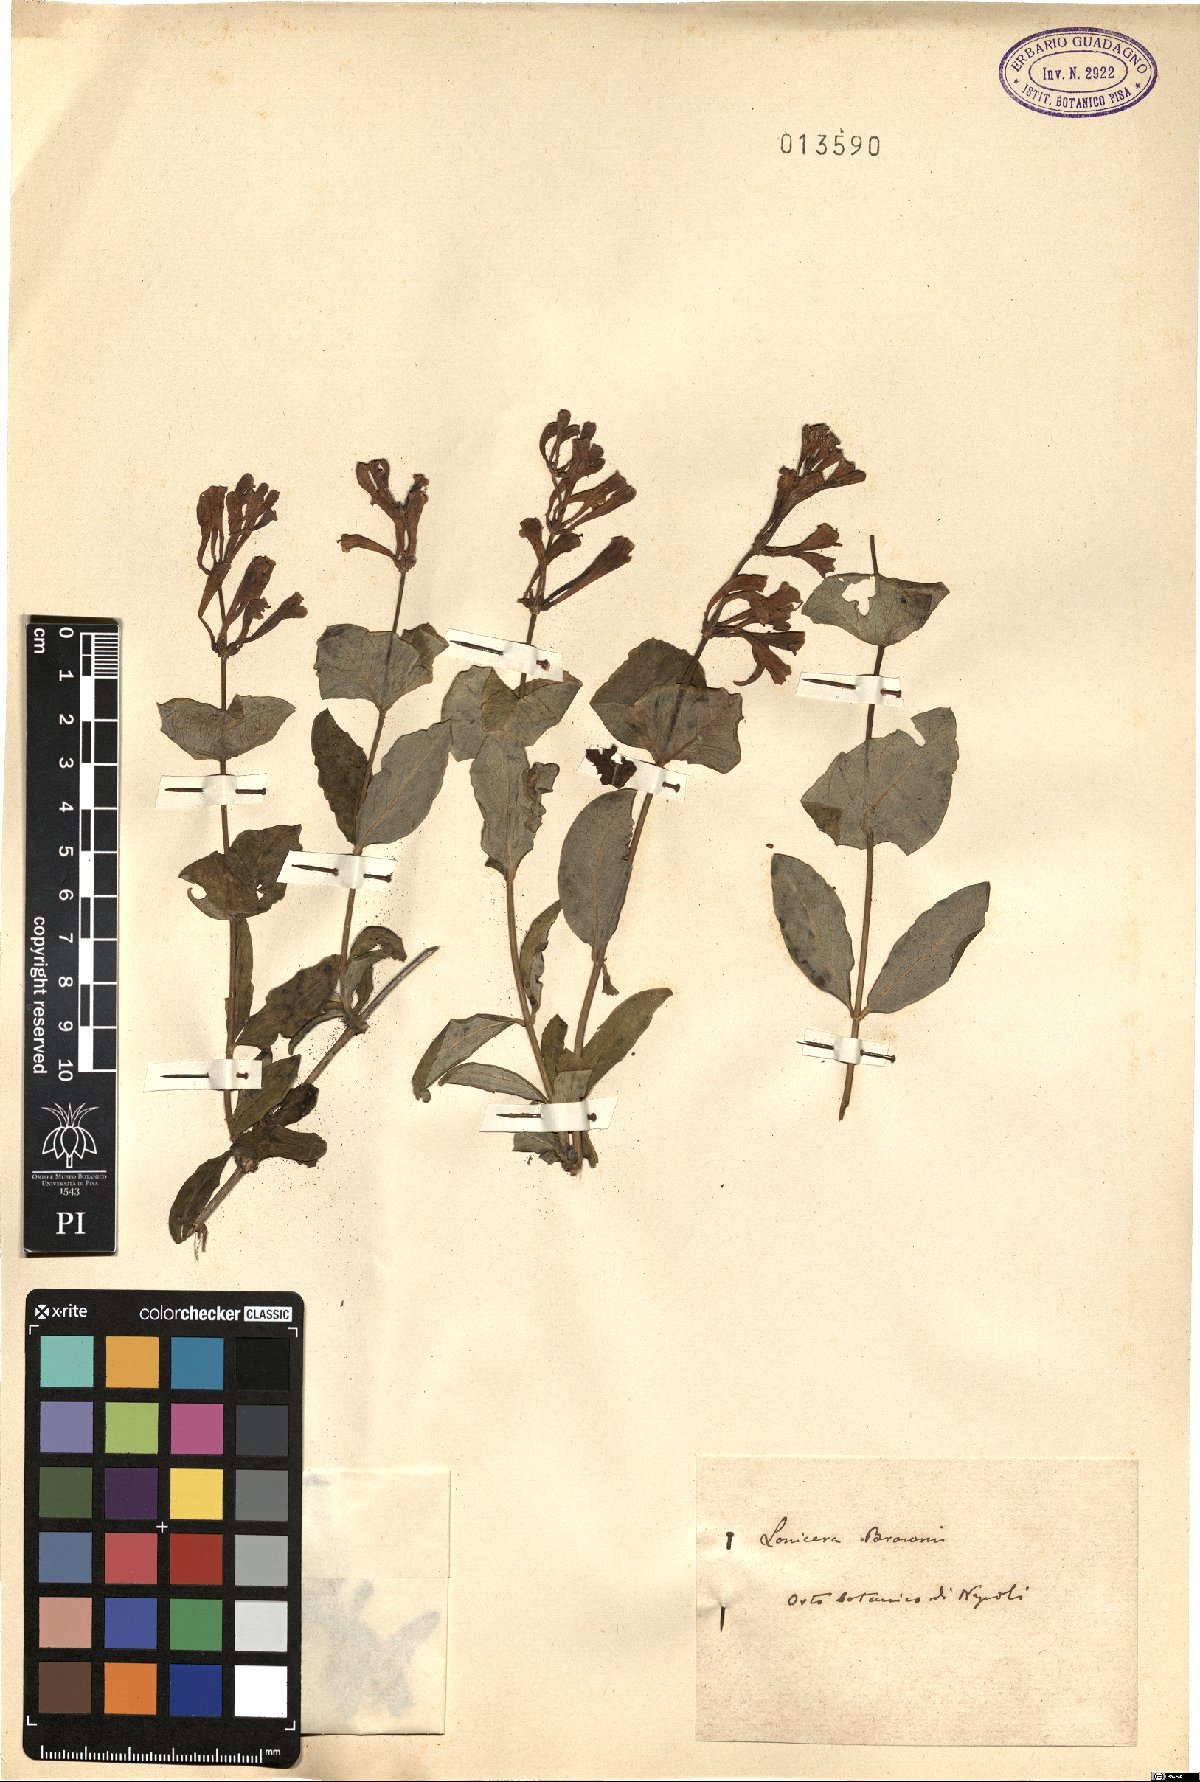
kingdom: Plantae
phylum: Tracheophyta
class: Magnoliopsida
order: Dipsacales
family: Caprifoliaceae
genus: Lonicera
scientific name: Lonicera brownii
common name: Scarlet trumpet honeysuckle
